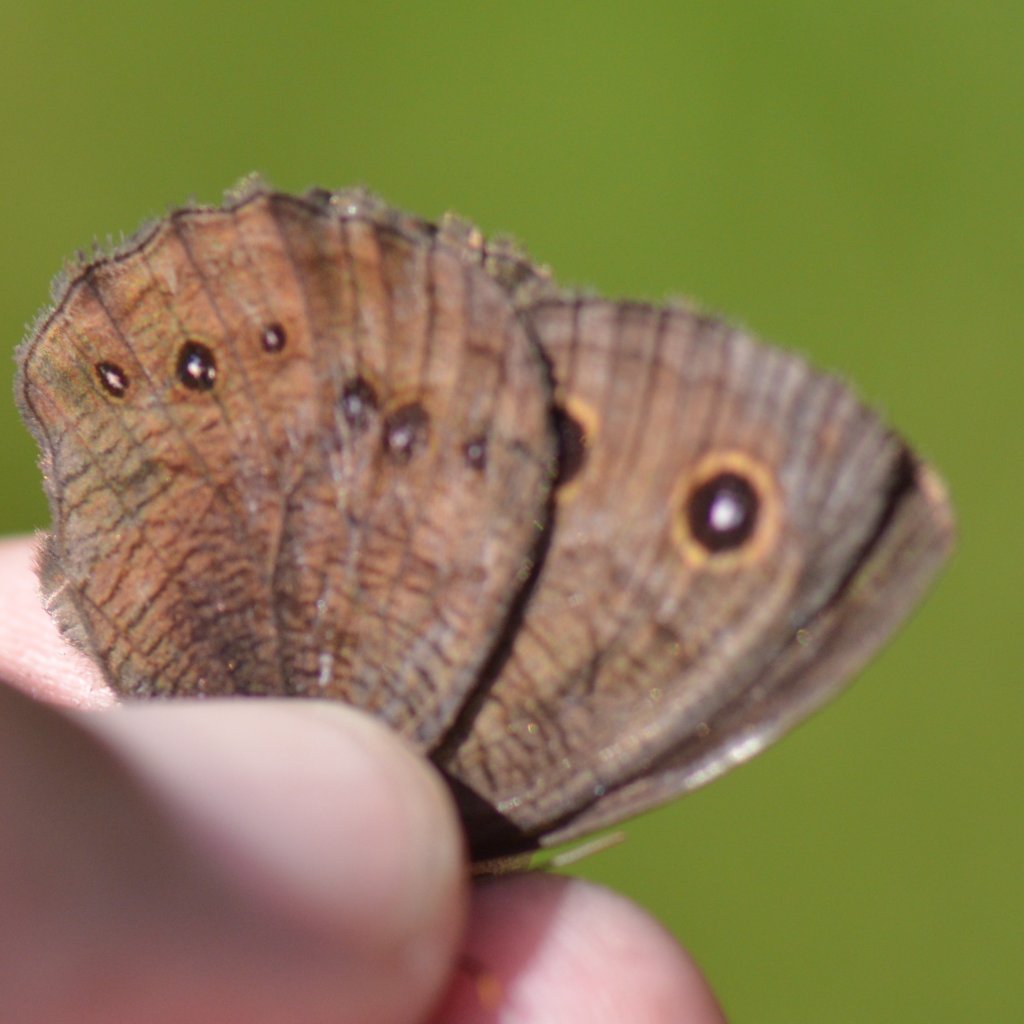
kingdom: Animalia
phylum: Arthropoda
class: Insecta
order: Lepidoptera
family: Nymphalidae
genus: Cercyonis
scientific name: Cercyonis pegala
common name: Common Wood-Nymph
